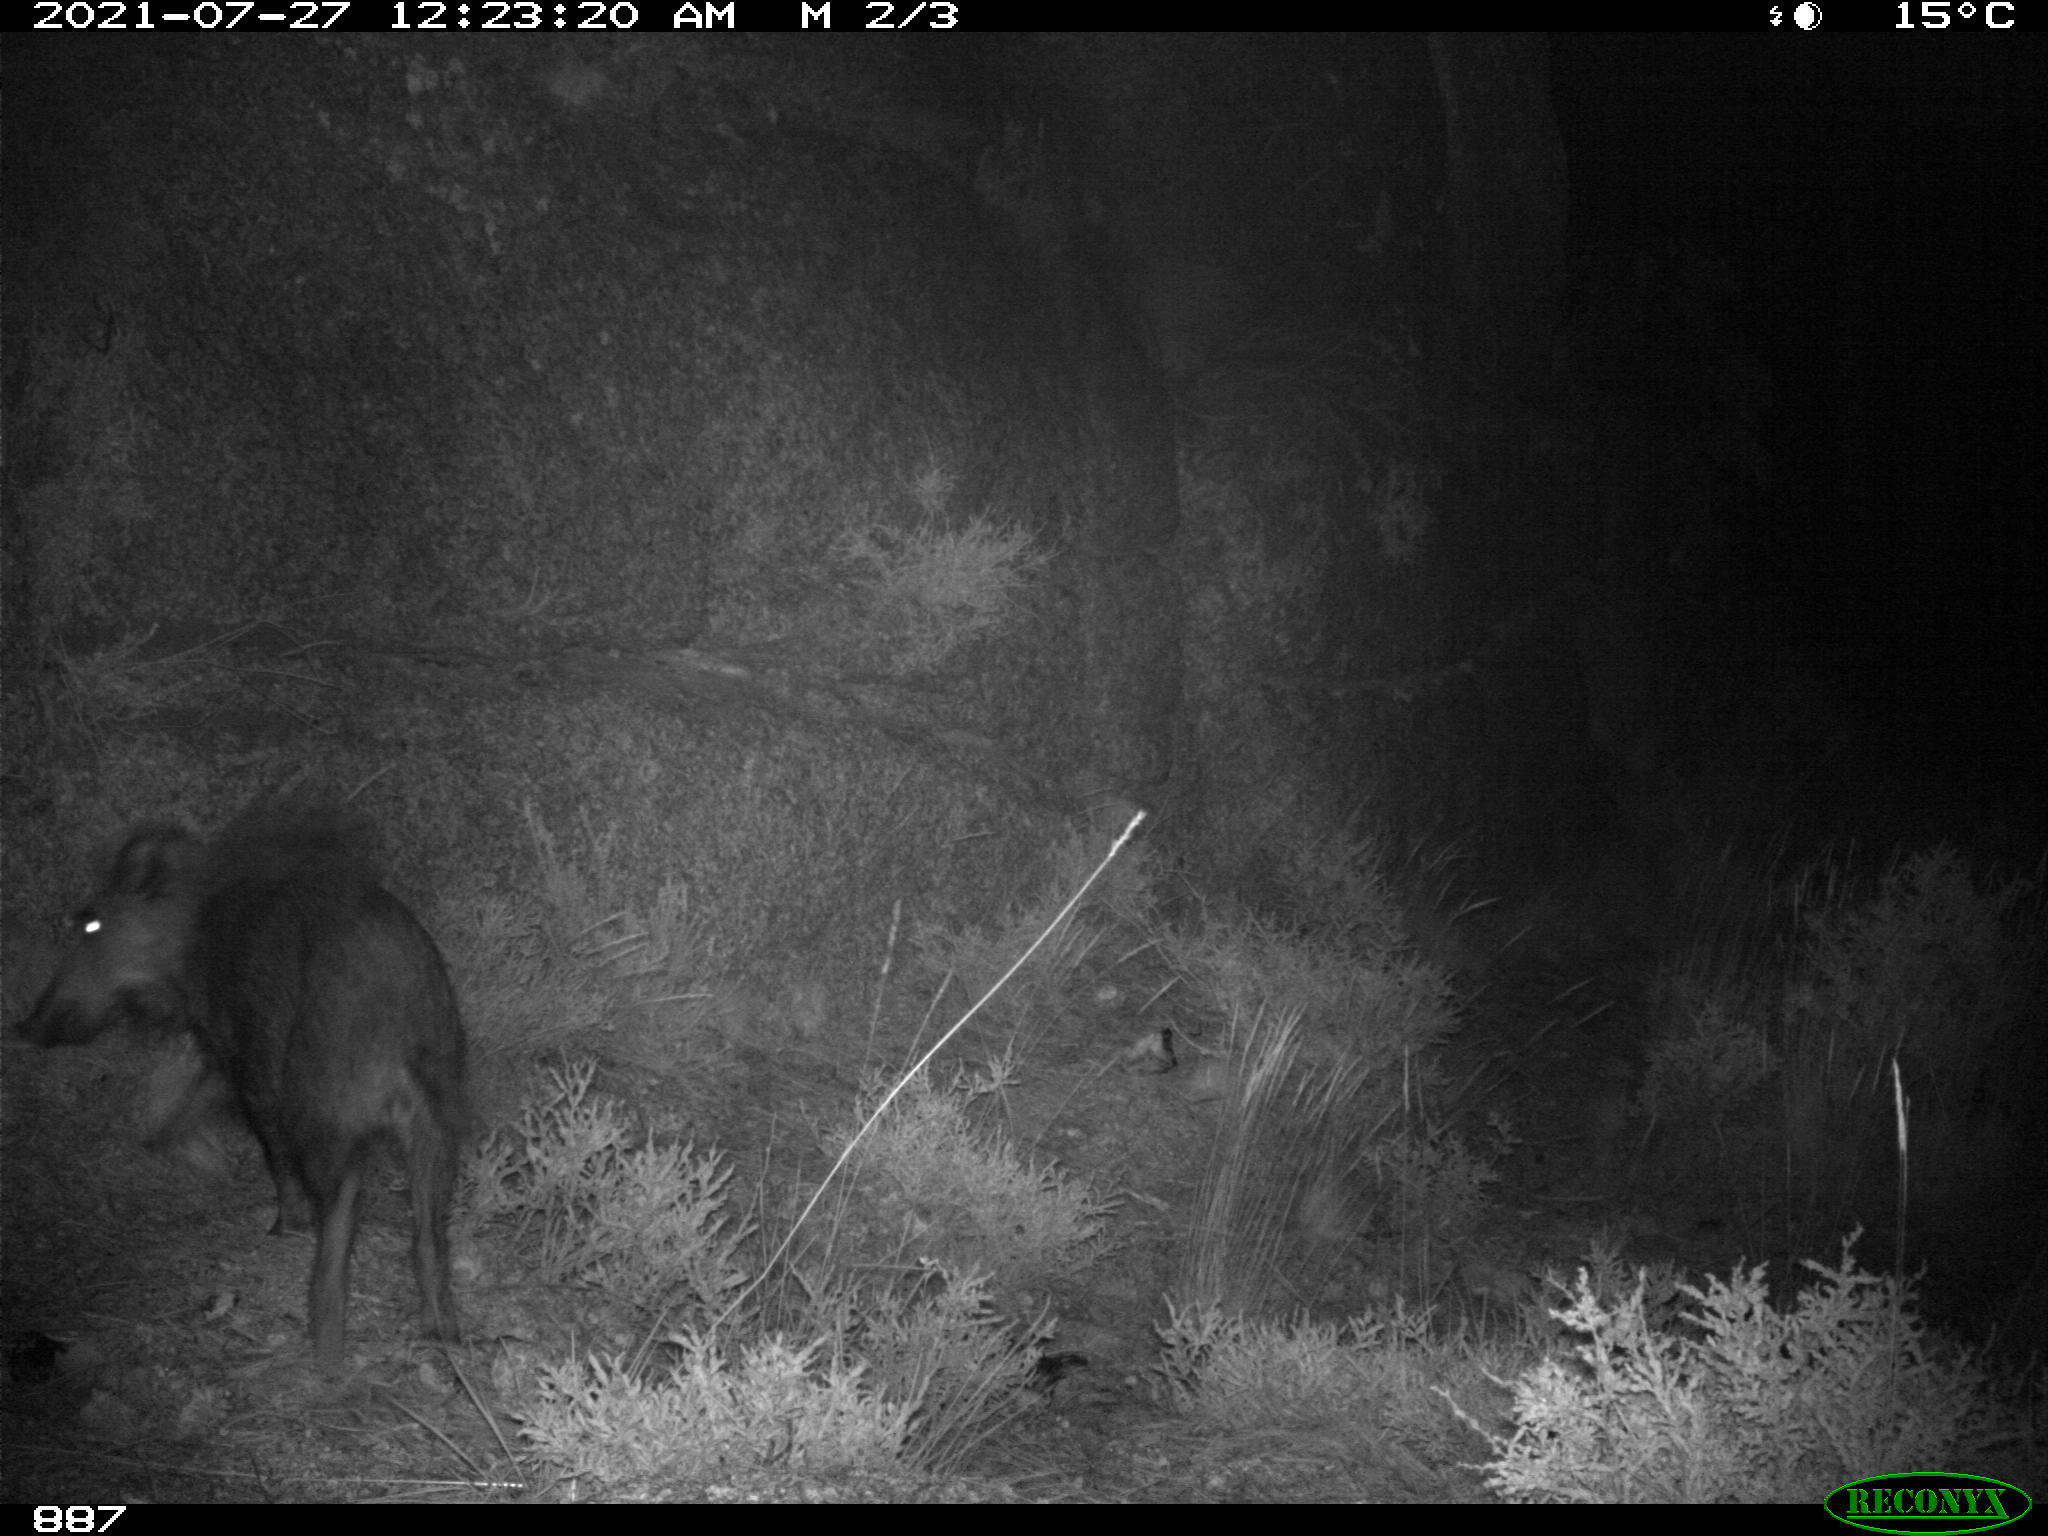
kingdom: Animalia
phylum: Chordata
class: Mammalia
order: Artiodactyla
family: Suidae
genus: Sus
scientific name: Sus scrofa
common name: Wild boar
